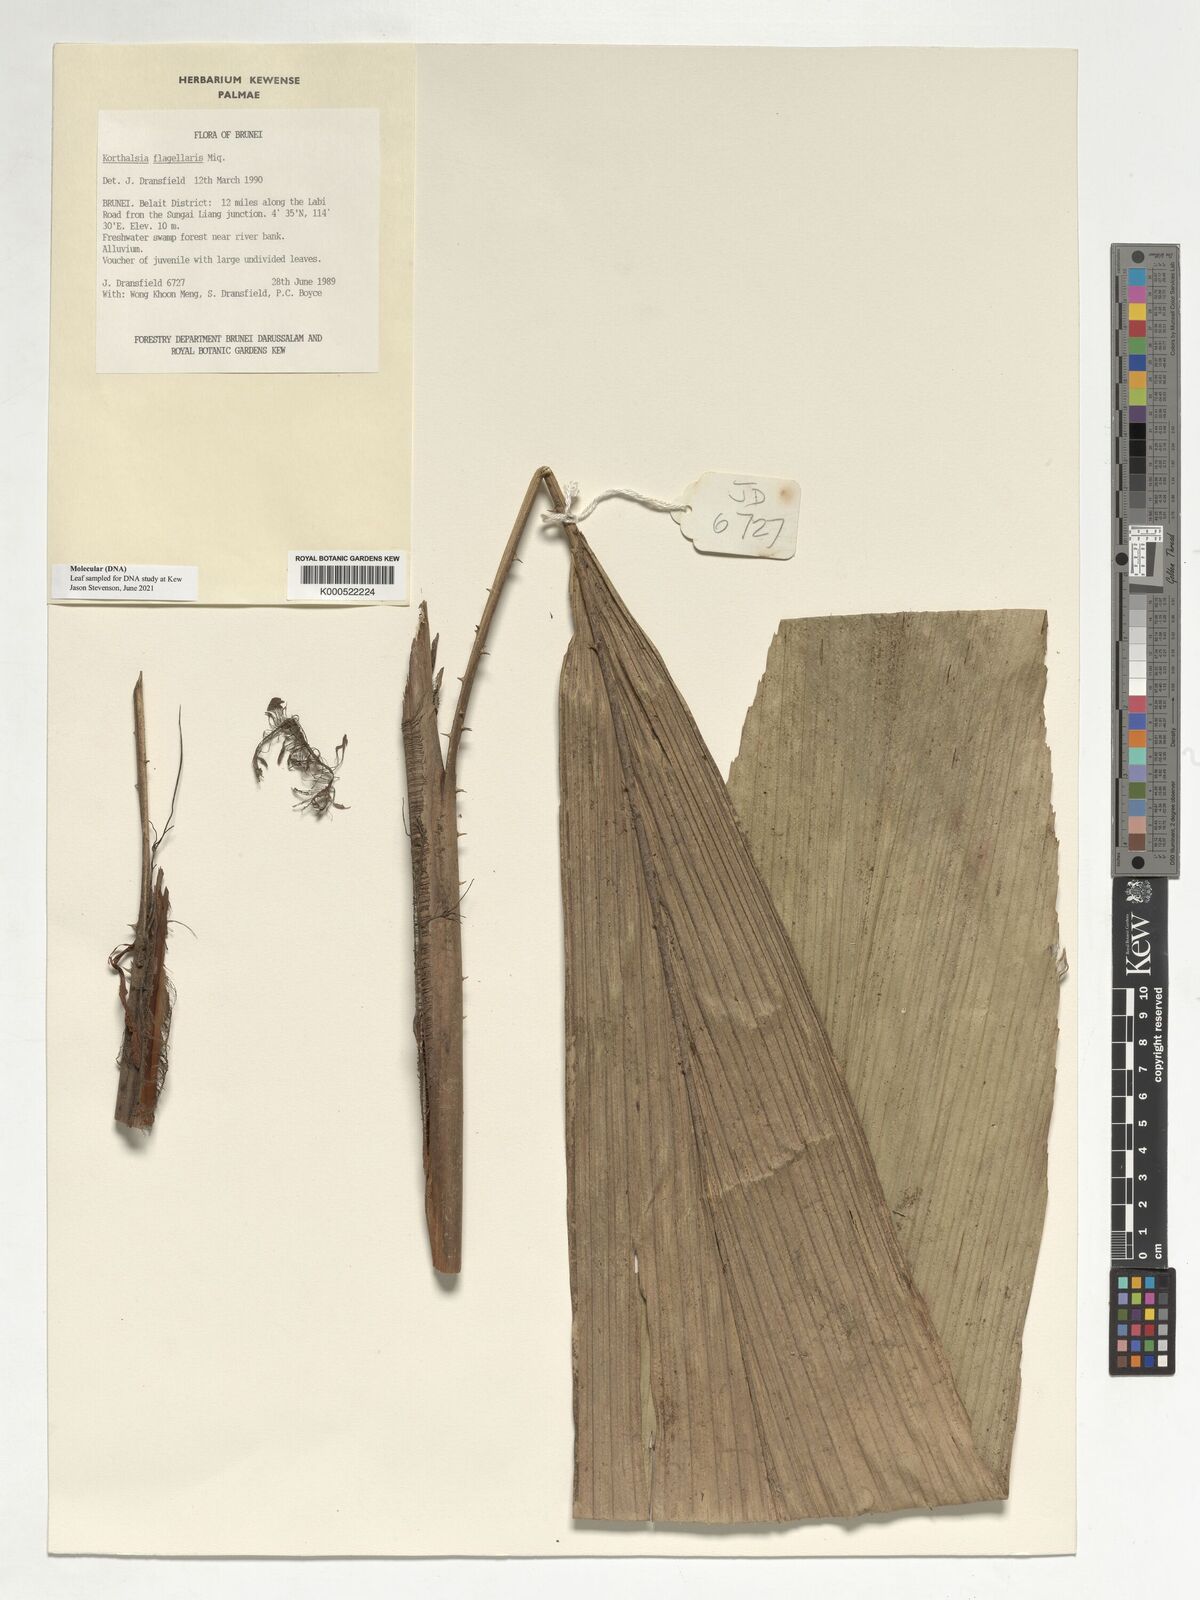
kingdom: Plantae
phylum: Tracheophyta
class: Liliopsida
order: Arecales
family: Arecaceae
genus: Korthalsia
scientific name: Korthalsia flagellaris
